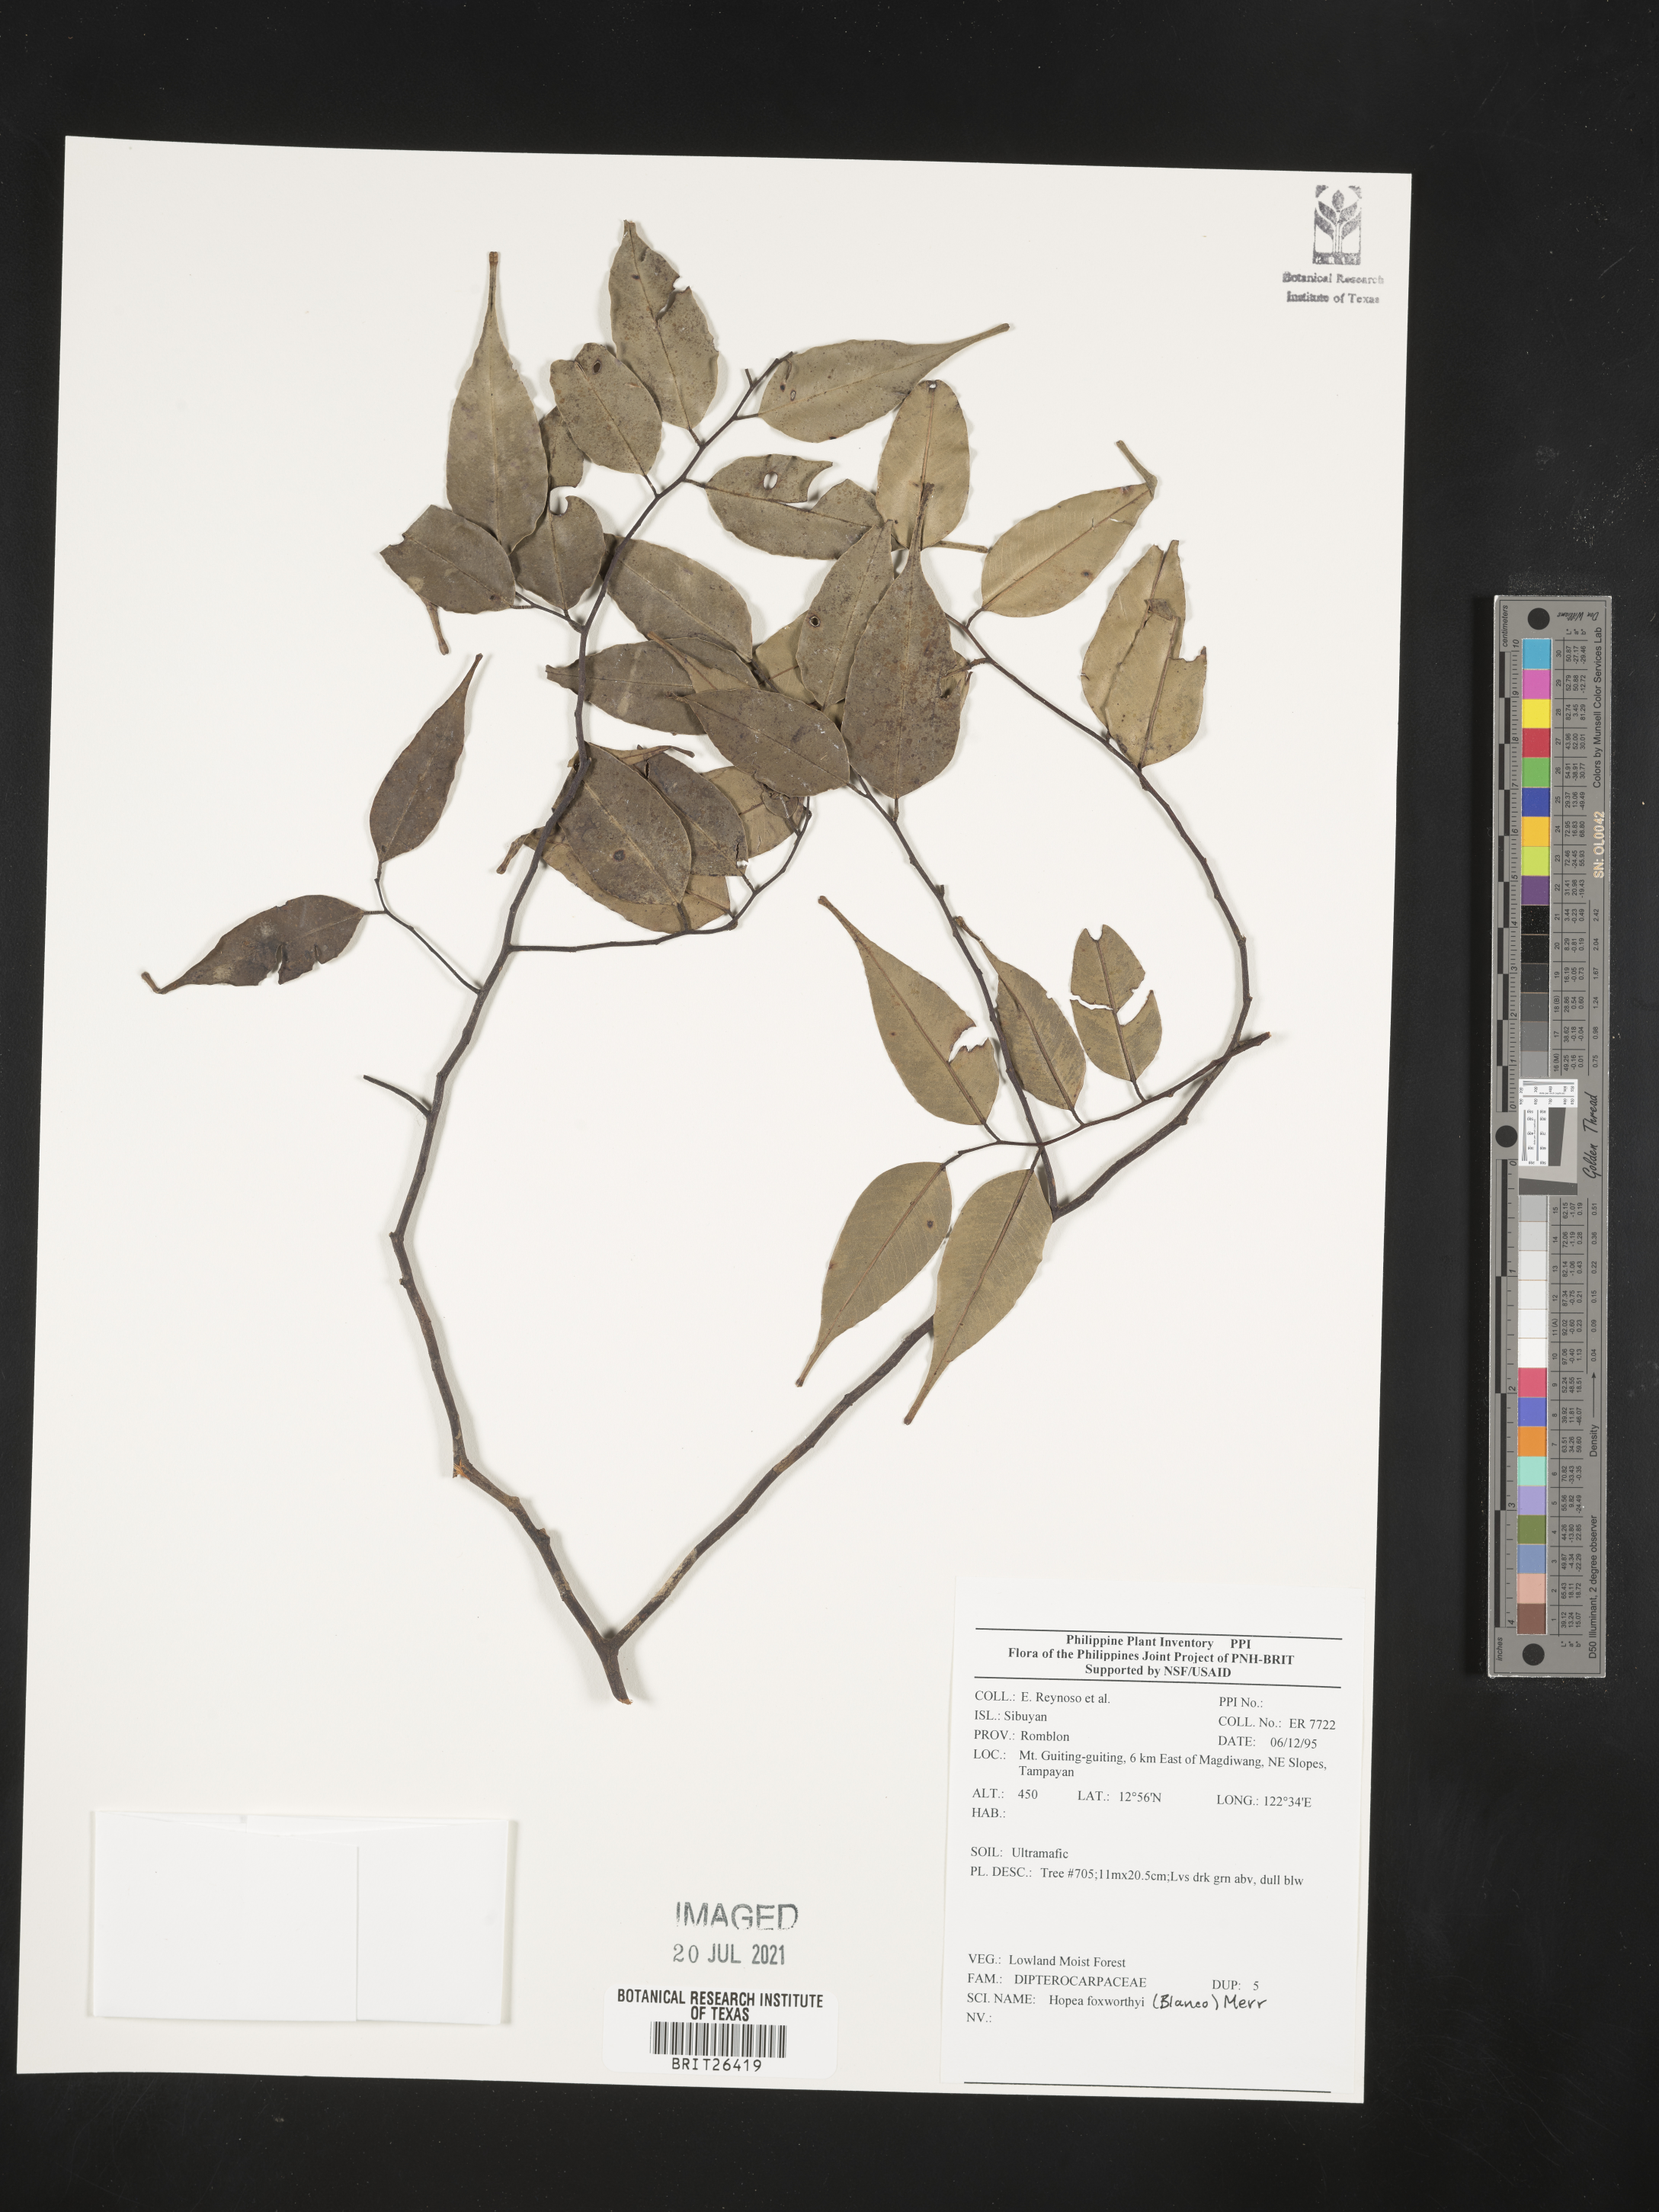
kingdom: Plantae
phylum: Tracheophyta
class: Magnoliopsida
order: Malvales
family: Dipterocarpaceae
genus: Hopea
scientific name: Hopea foxworthyi
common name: Dalingdingan
